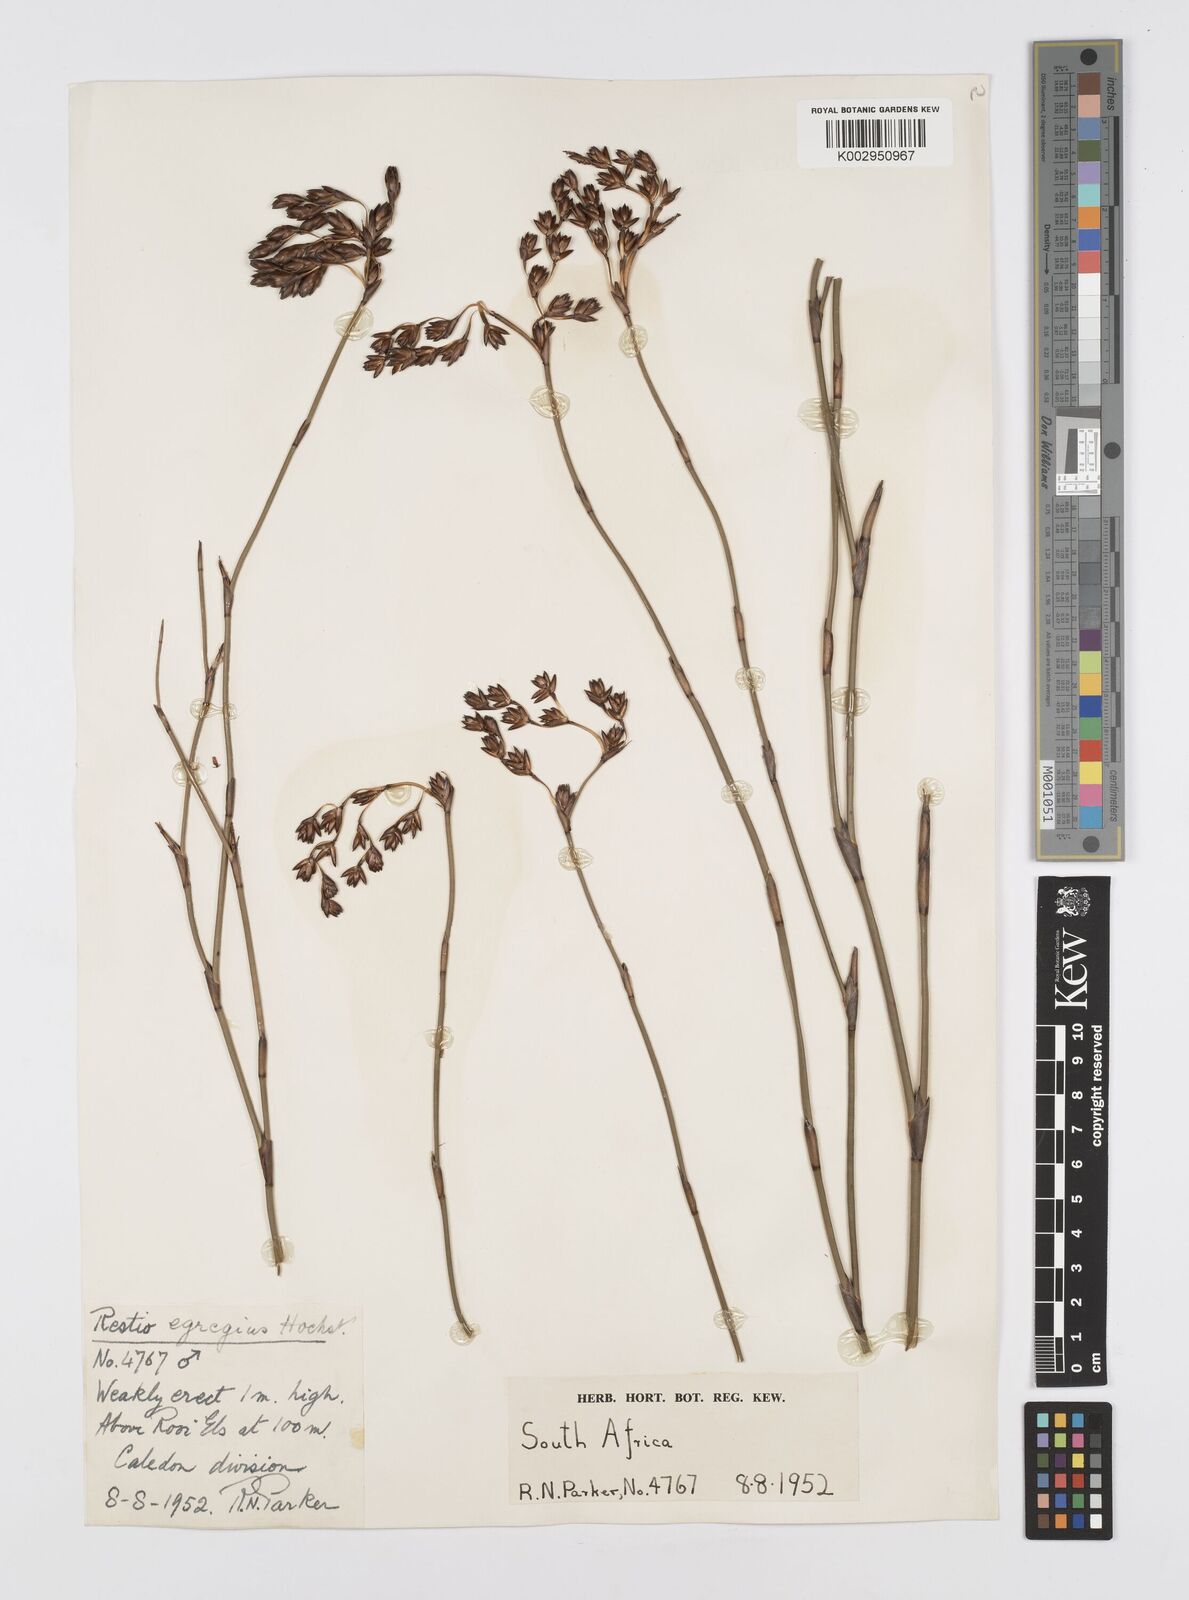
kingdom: Plantae
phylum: Tracheophyta
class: Liliopsida
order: Poales
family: Restionaceae
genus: Restio
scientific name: Restio egregius
